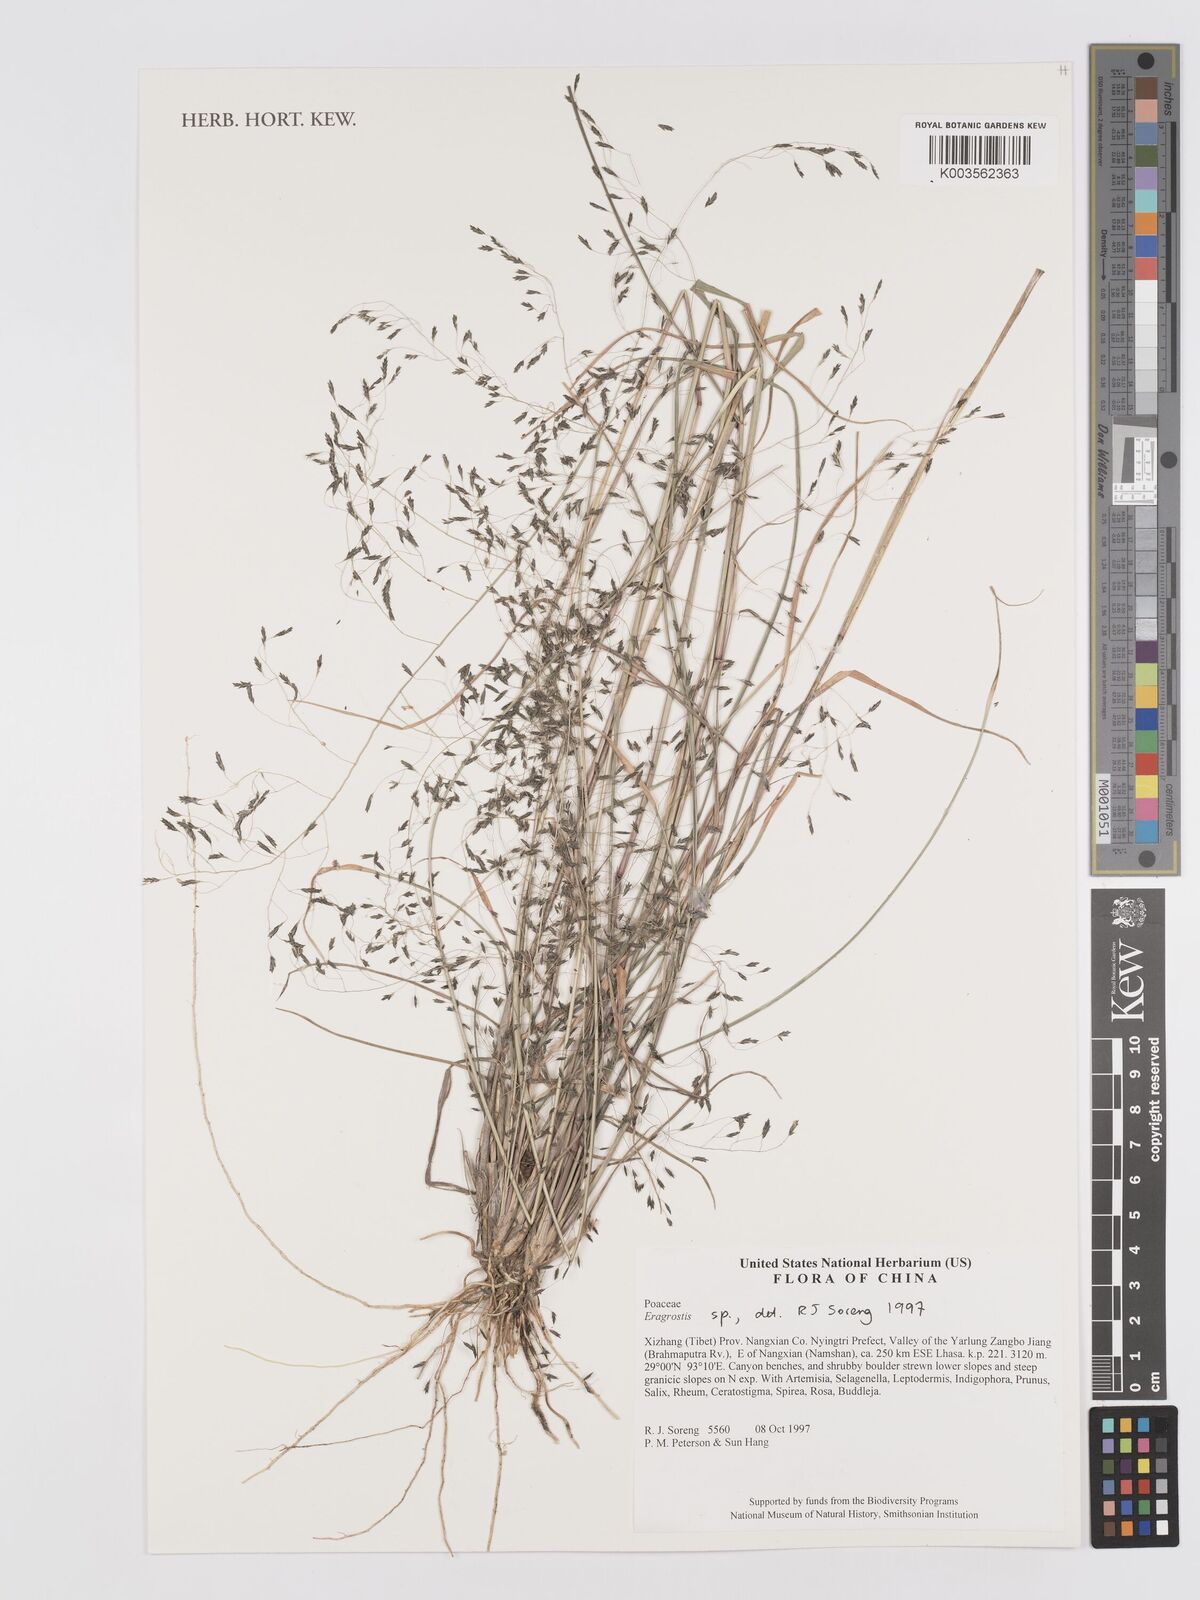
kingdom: Plantae
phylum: Tracheophyta
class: Liliopsida
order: Poales
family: Poaceae
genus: Eragrostis
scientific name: Eragrostis
